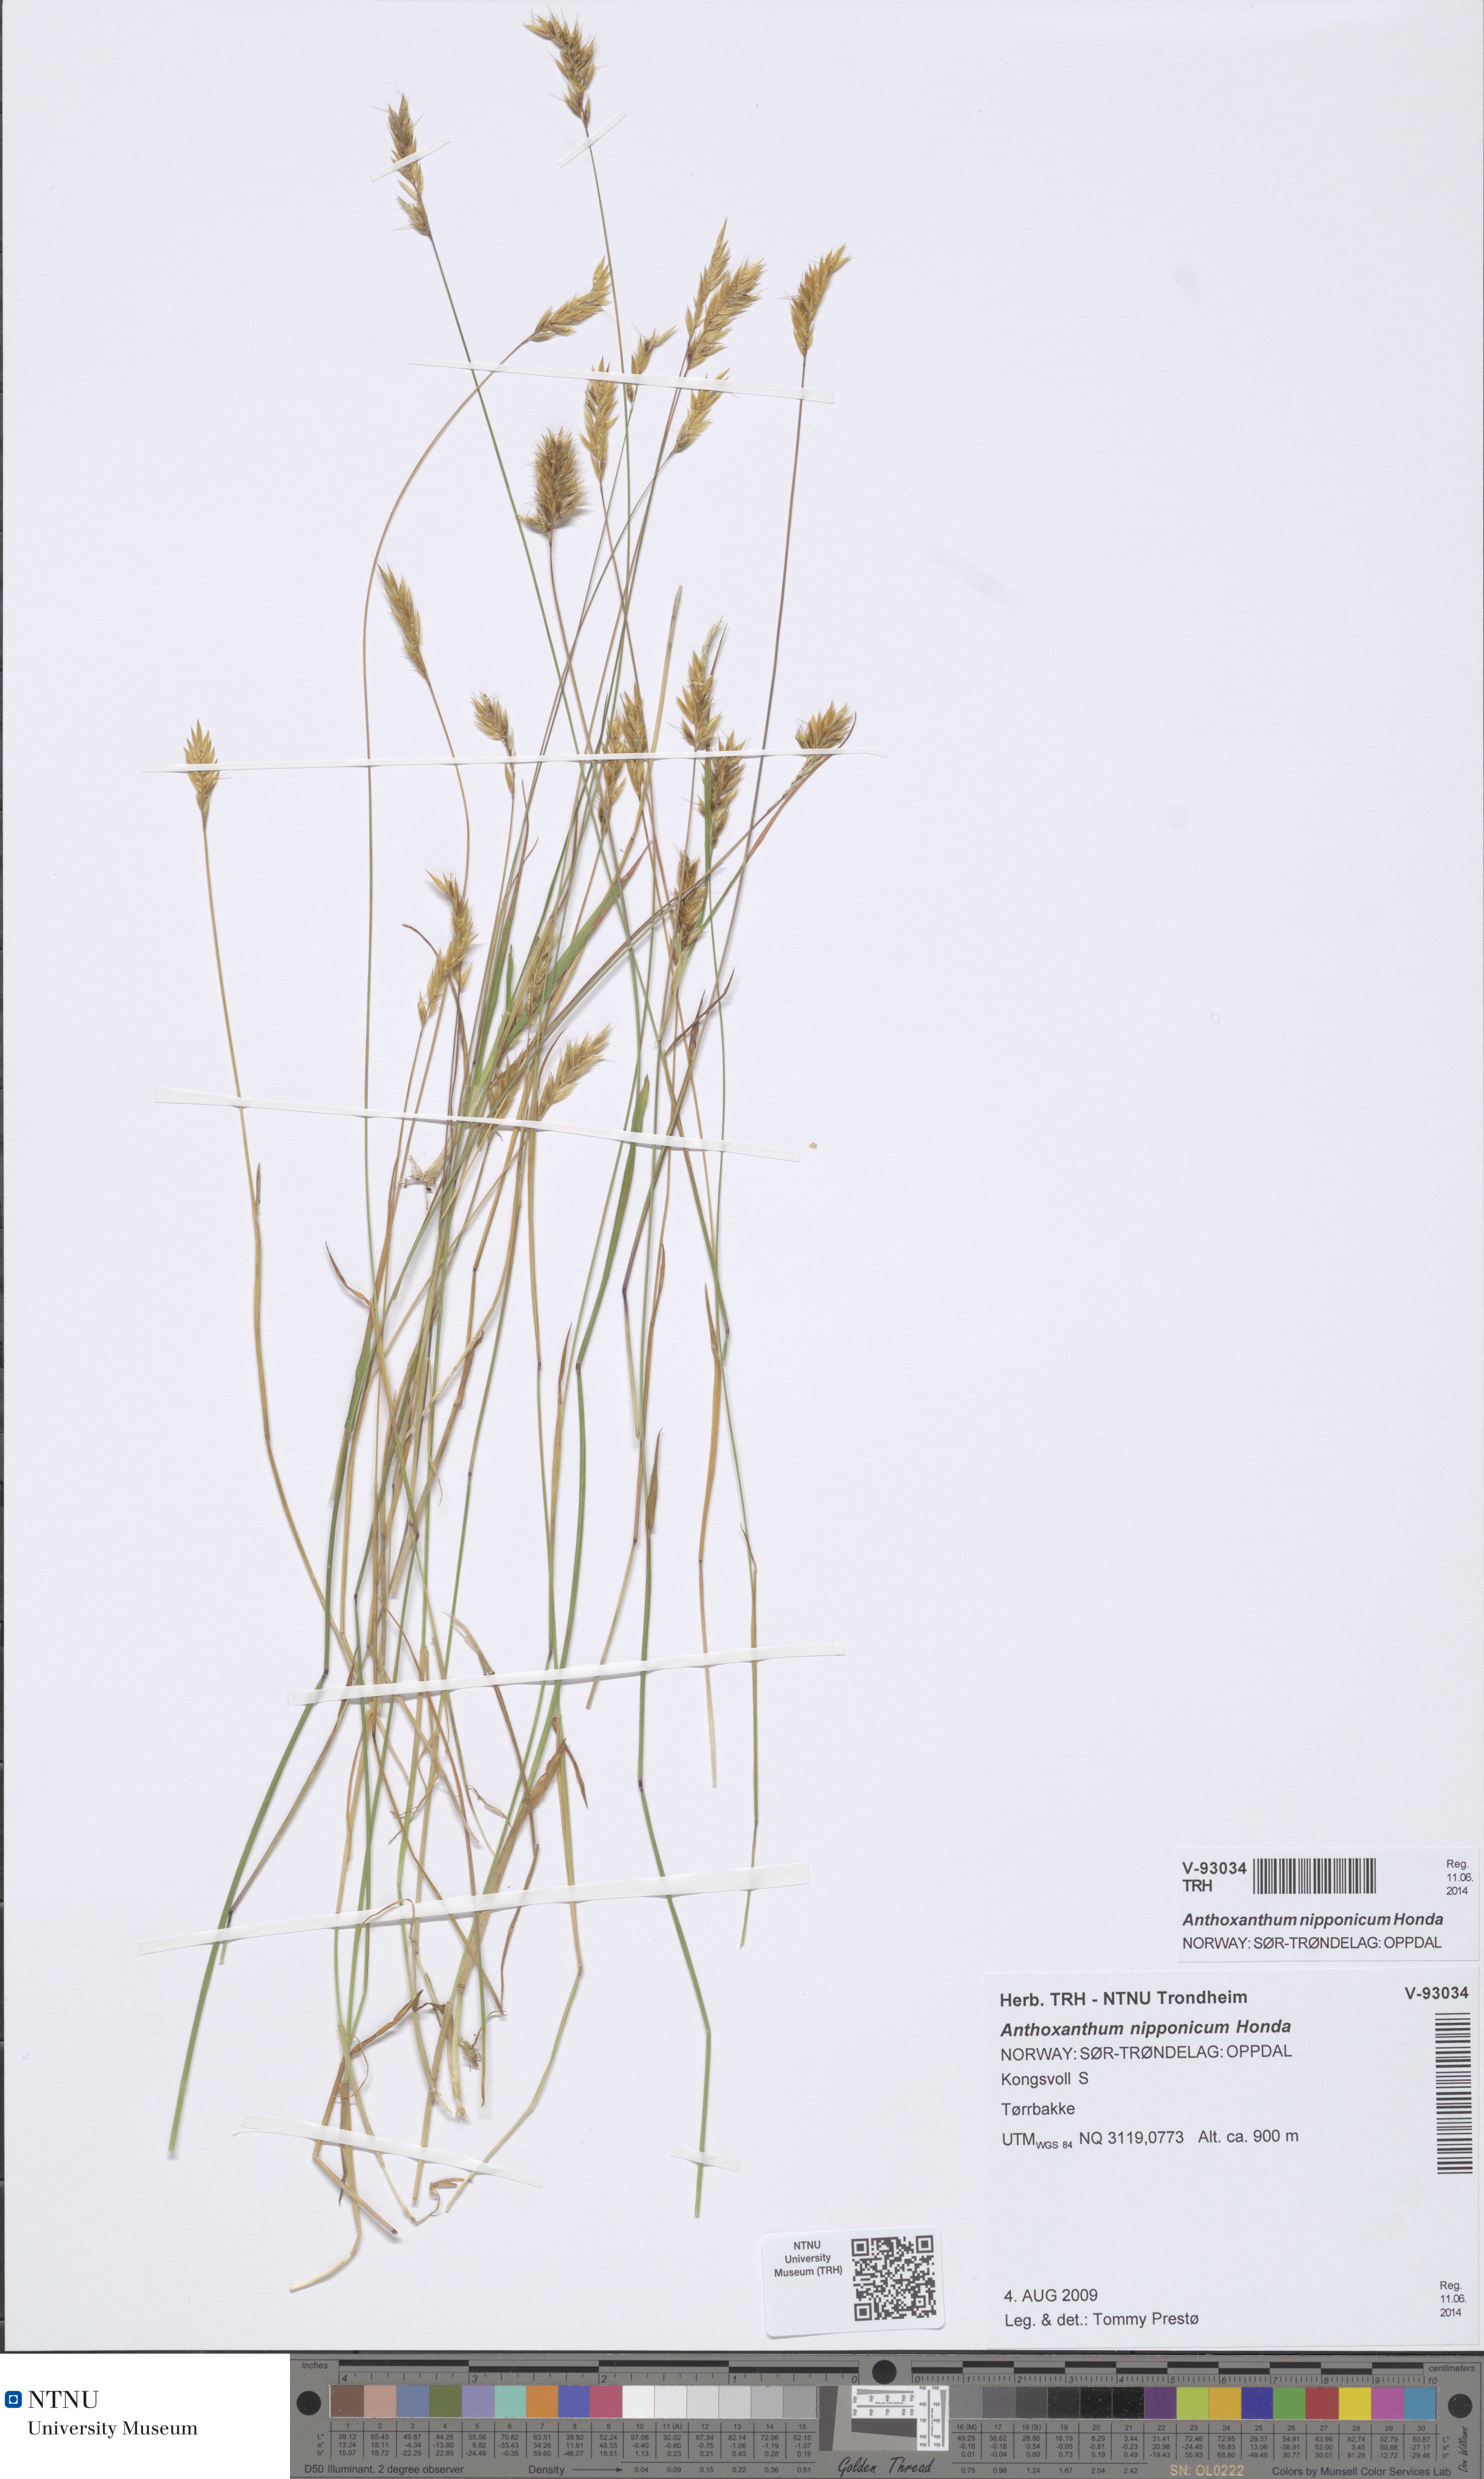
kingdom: Plantae
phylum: Tracheophyta
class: Liliopsida
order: Poales
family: Poaceae
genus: Anthoxanthum
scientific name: Anthoxanthum nipponicum
